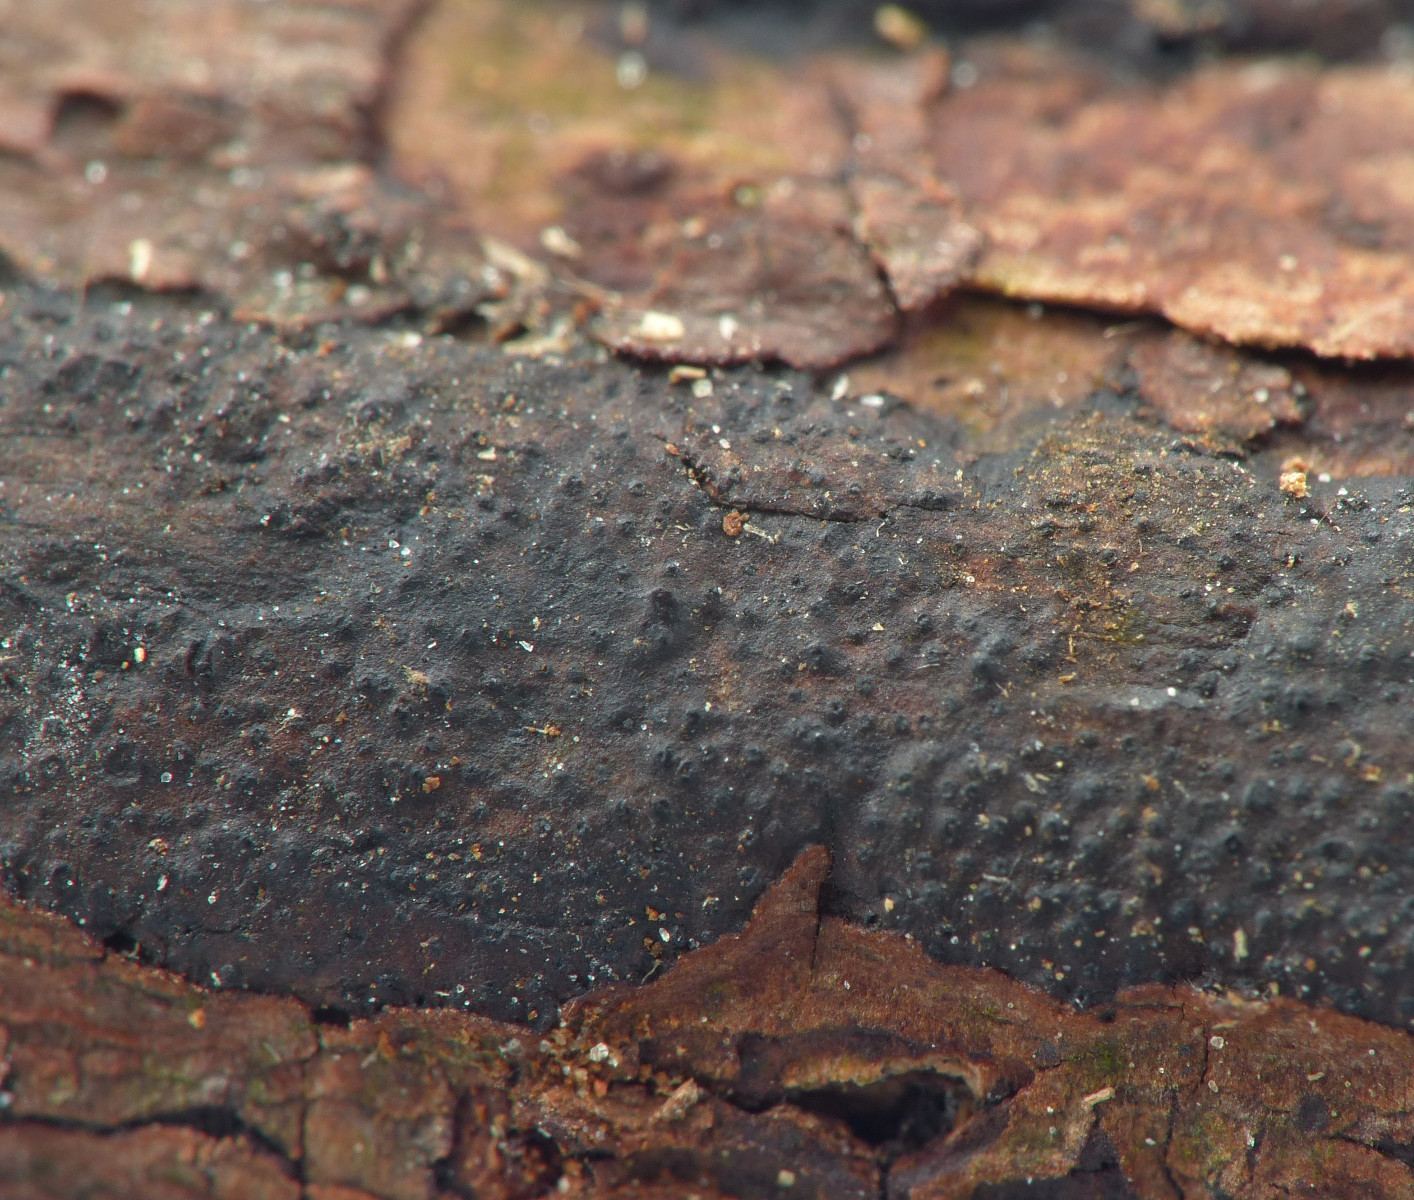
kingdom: Fungi
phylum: Ascomycota
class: Sordariomycetes
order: Xylariales
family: Diatrypaceae
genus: Eutypa
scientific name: Eutypa lata
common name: almindelig kulskorpe
